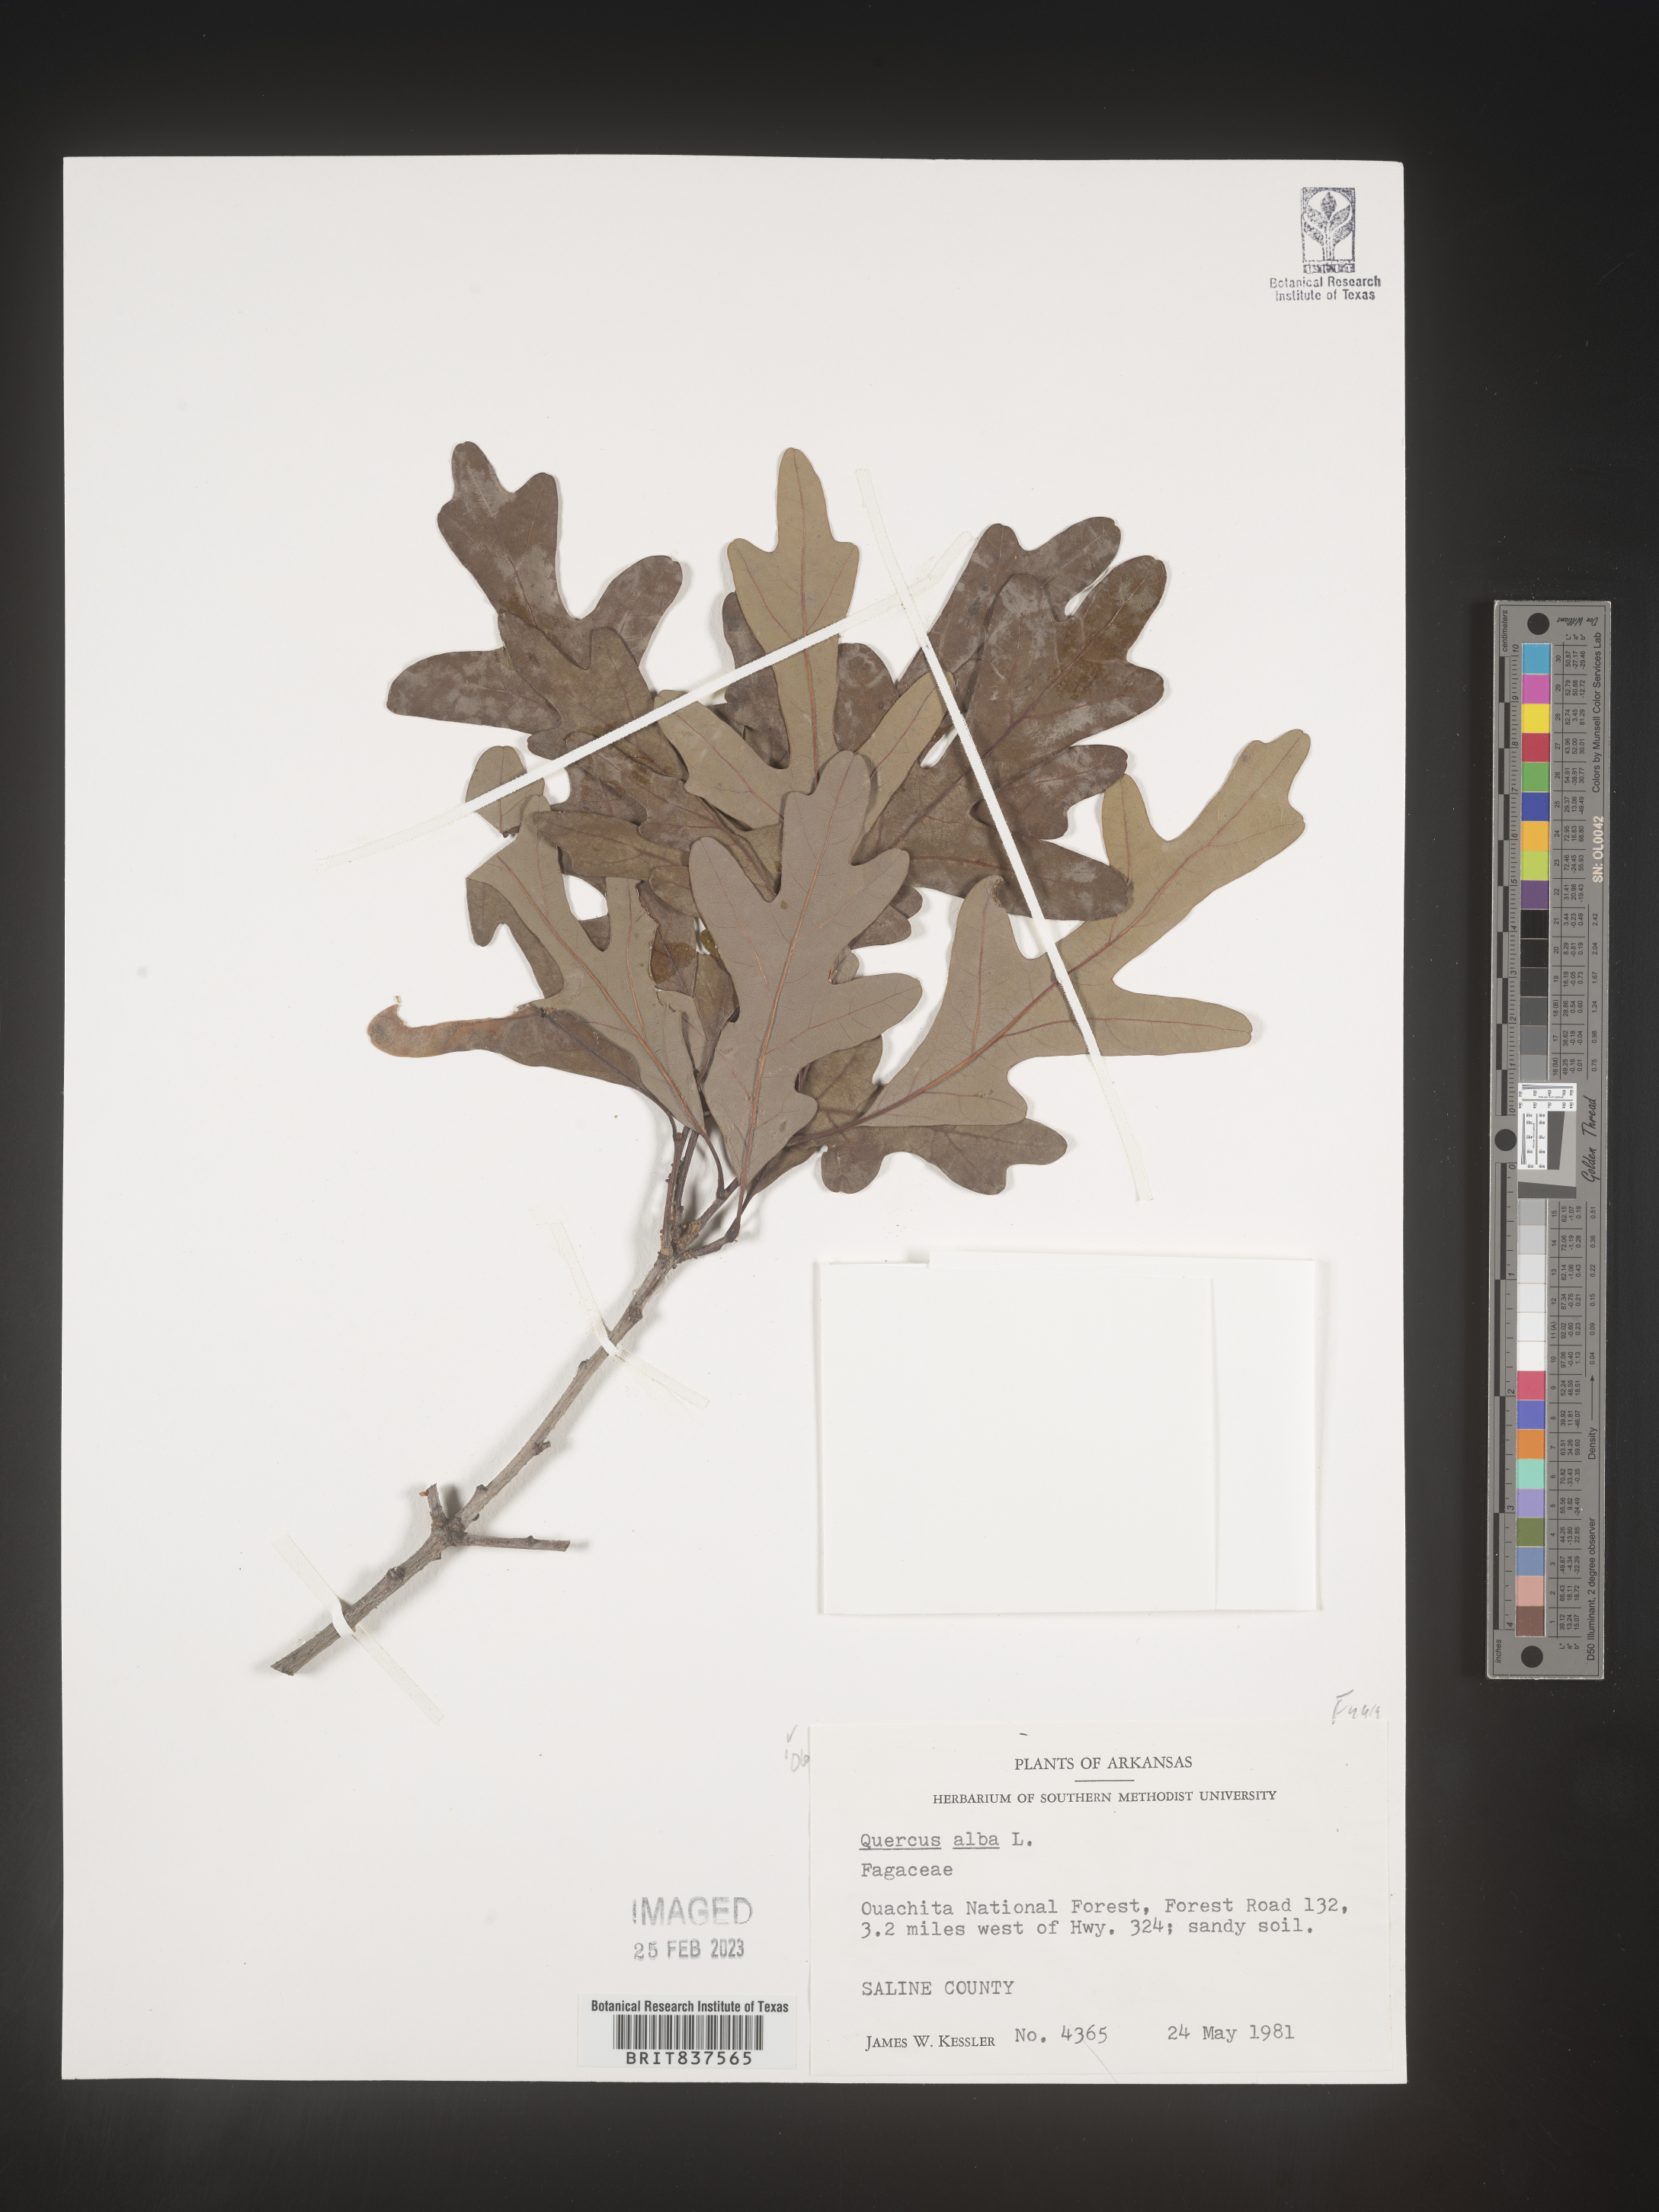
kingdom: Plantae
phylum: Tracheophyta
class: Magnoliopsida
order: Fagales
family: Fagaceae
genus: Quercus
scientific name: Quercus alba
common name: White oak
